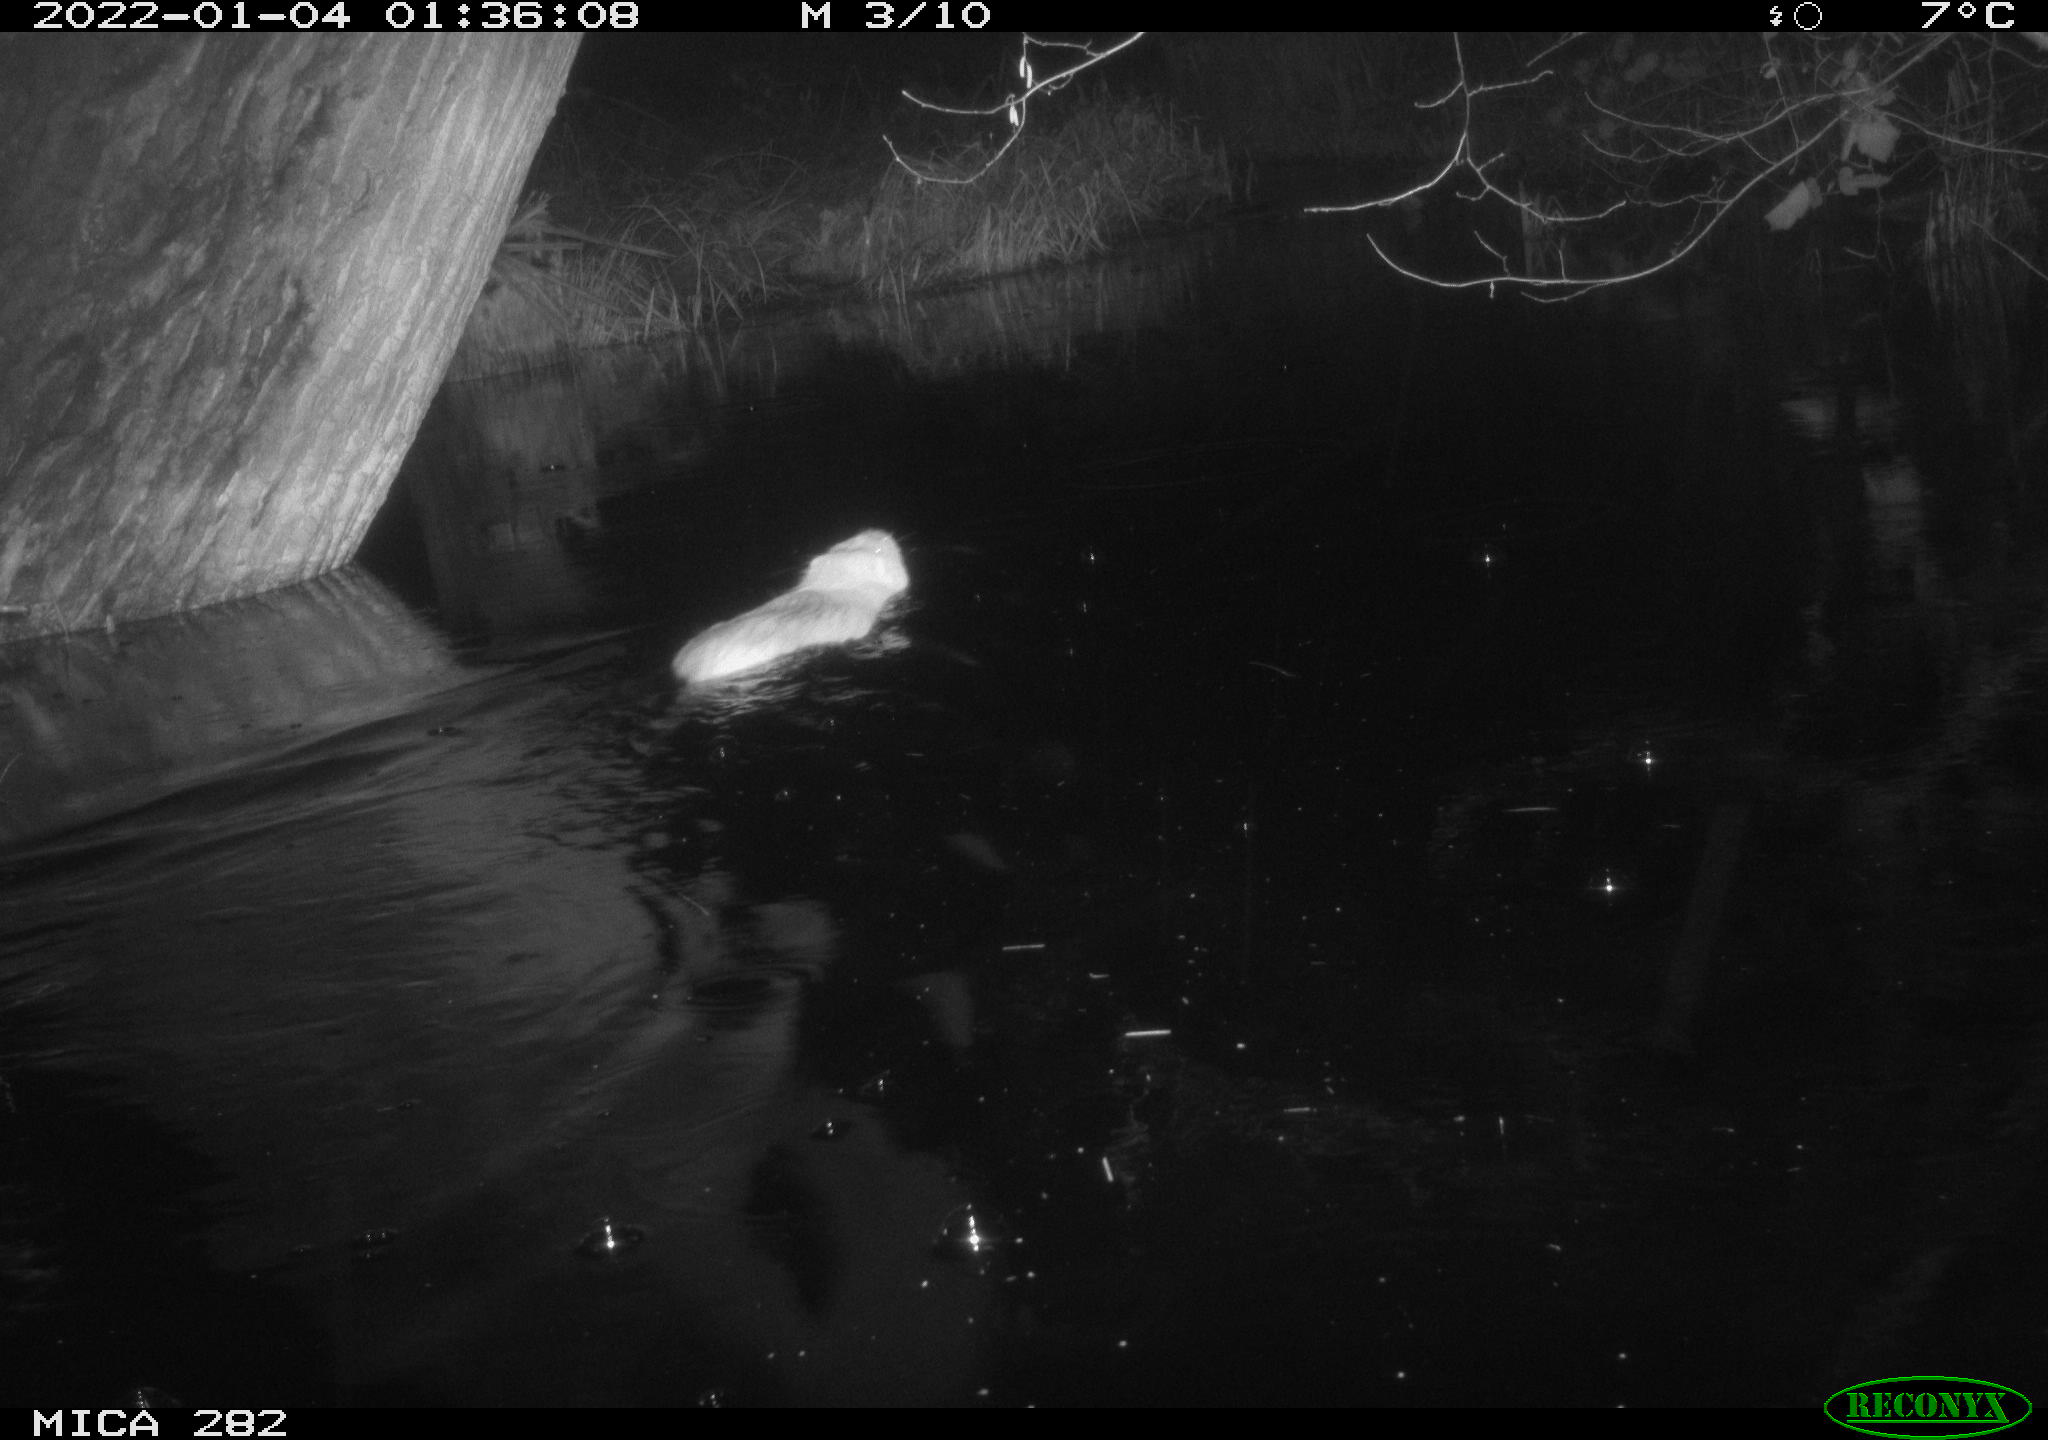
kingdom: Animalia
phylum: Chordata
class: Mammalia
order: Rodentia
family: Myocastoridae
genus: Myocastor
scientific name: Myocastor coypus
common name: Coypu
